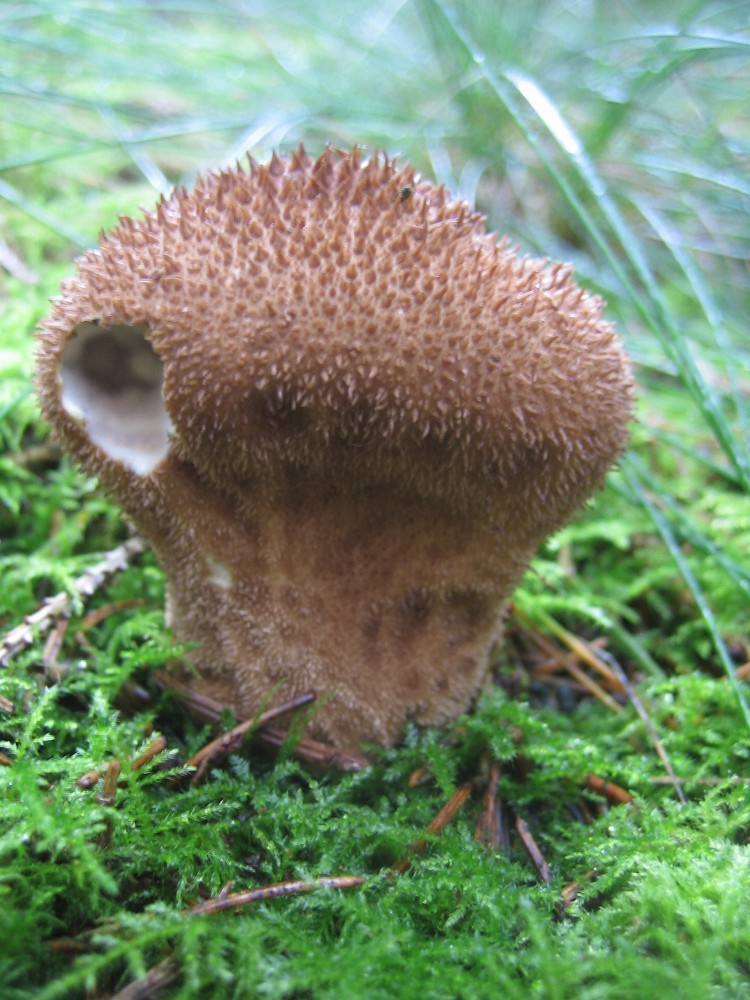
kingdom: Fungi
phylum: Basidiomycota
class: Agaricomycetes
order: Agaricales
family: Lycoperdaceae
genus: Lycoperdon
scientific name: Lycoperdon nigrescens
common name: sortagtig støvbold
